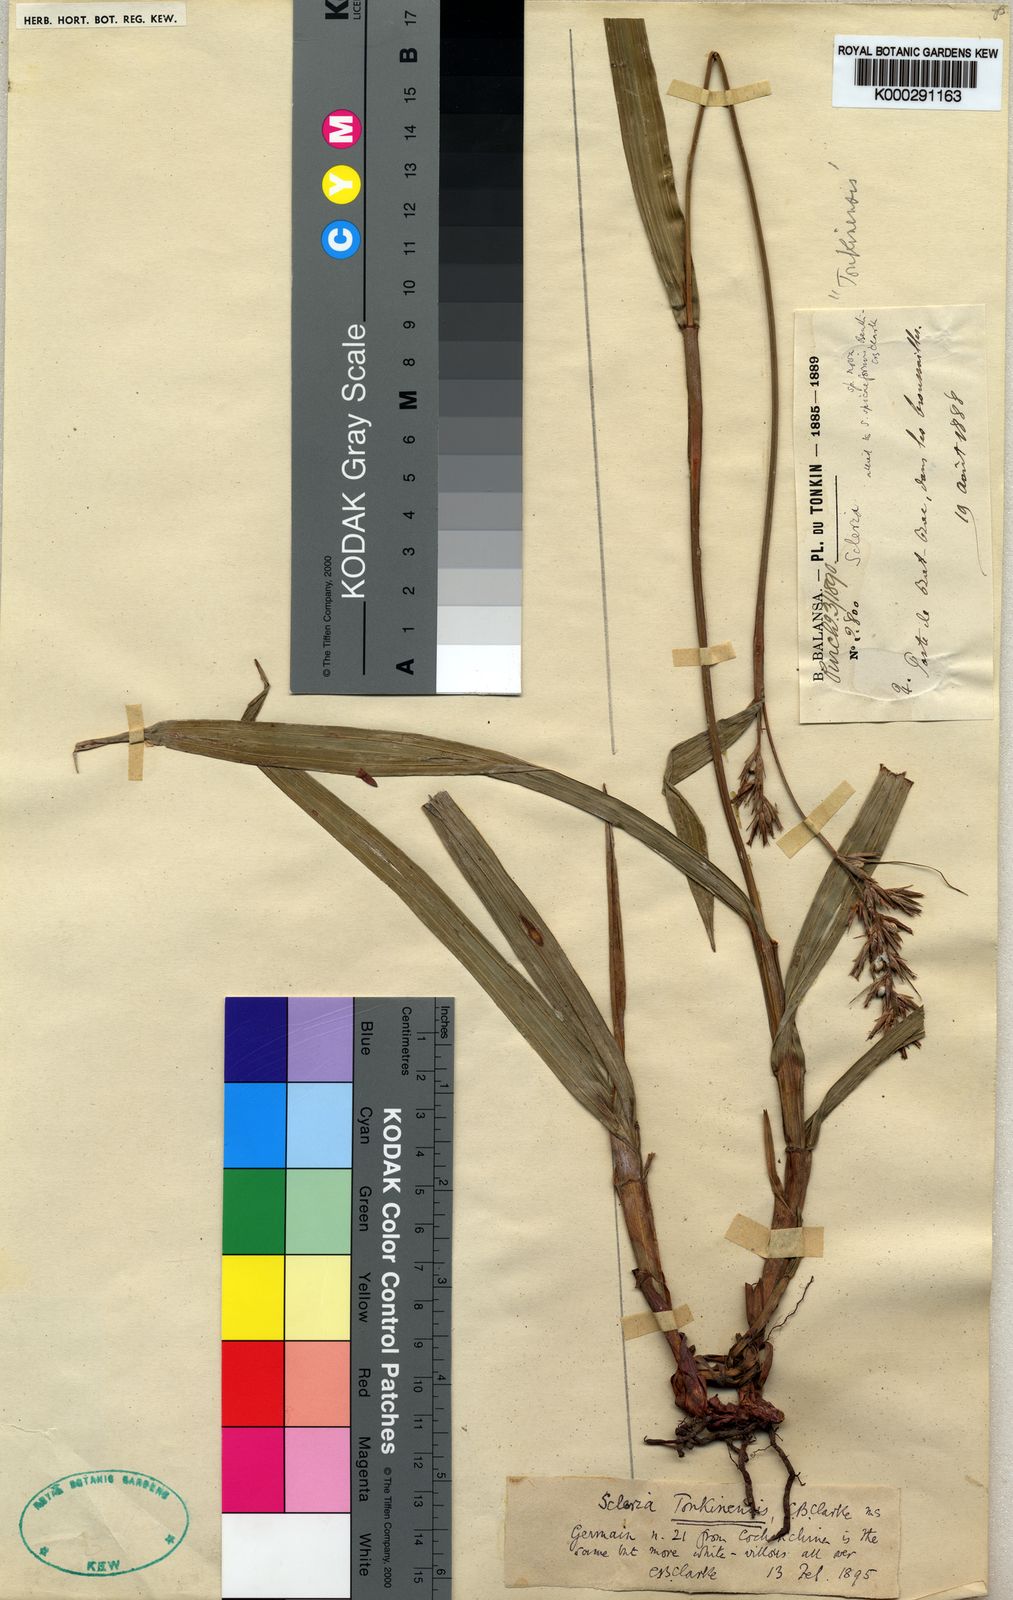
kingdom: Plantae
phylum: Tracheophyta
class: Liliopsida
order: Poales
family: Cyperaceae
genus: Scleria
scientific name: Scleria tonkinensis
